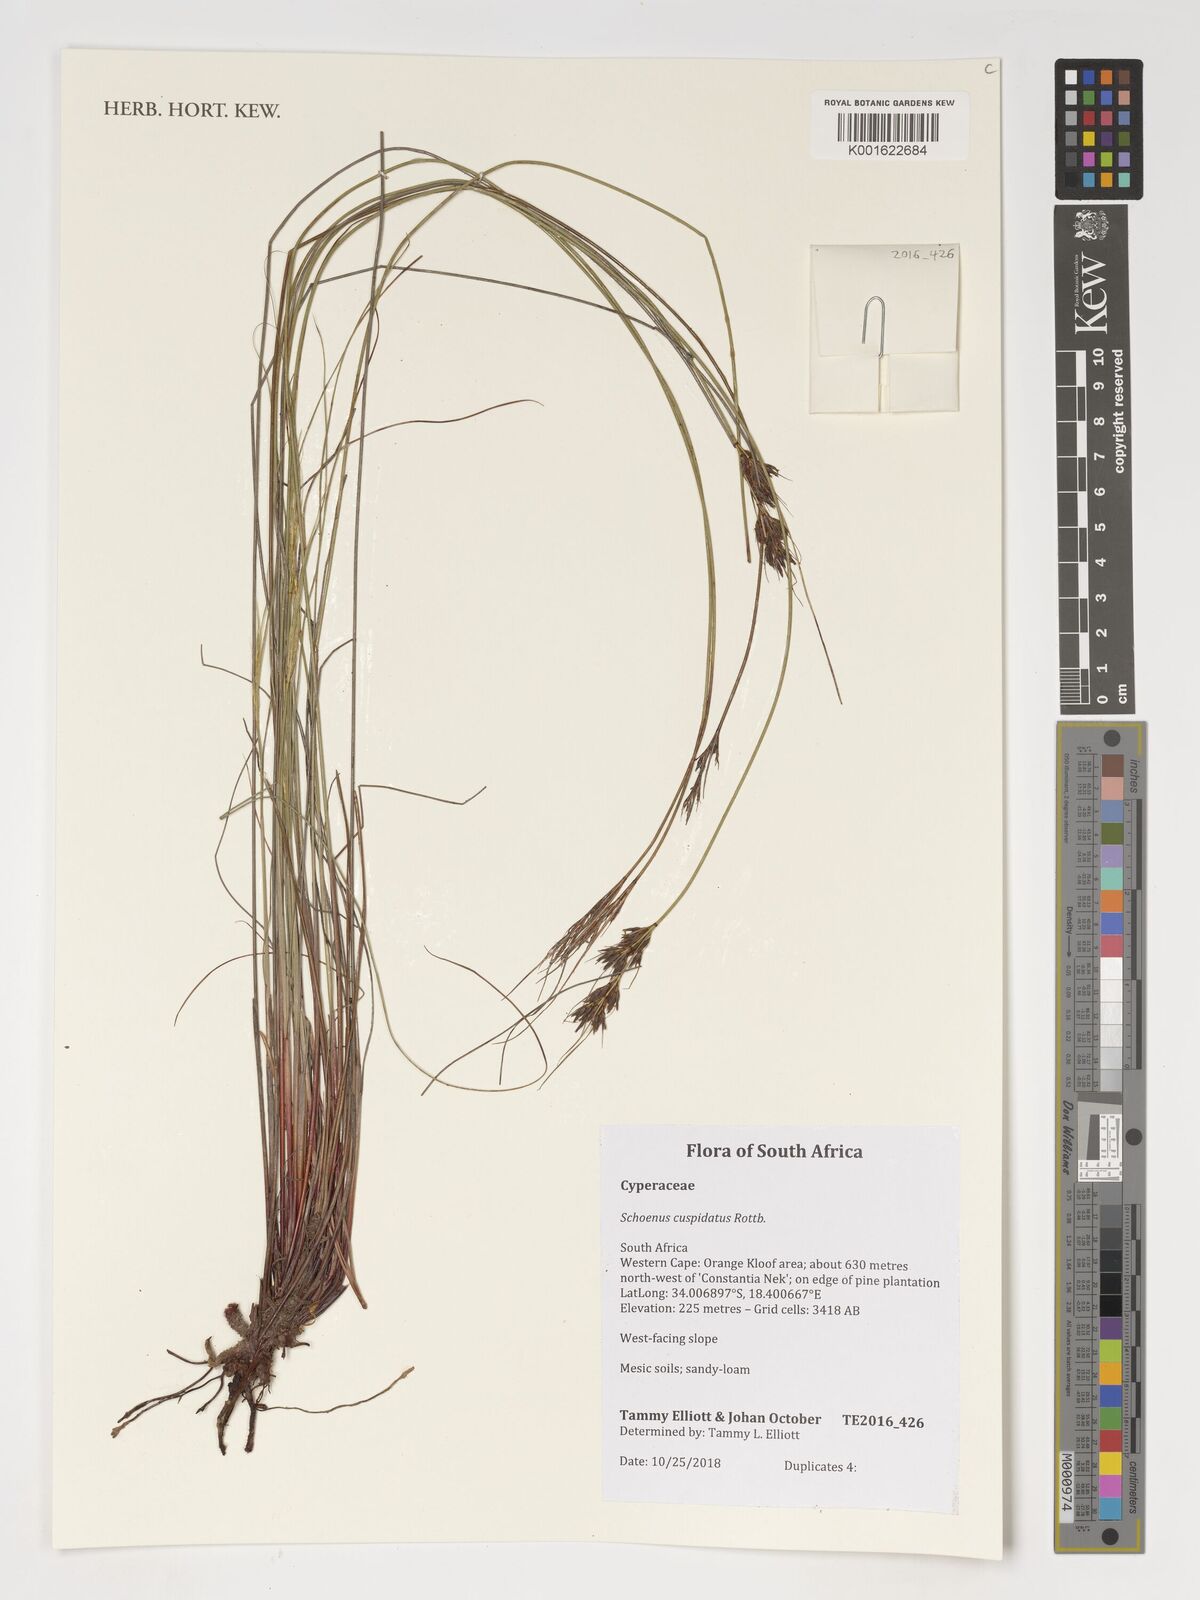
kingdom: Plantae
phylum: Tracheophyta
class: Liliopsida
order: Poales
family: Cyperaceae
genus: Schoenus
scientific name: Schoenus cuspidatus
